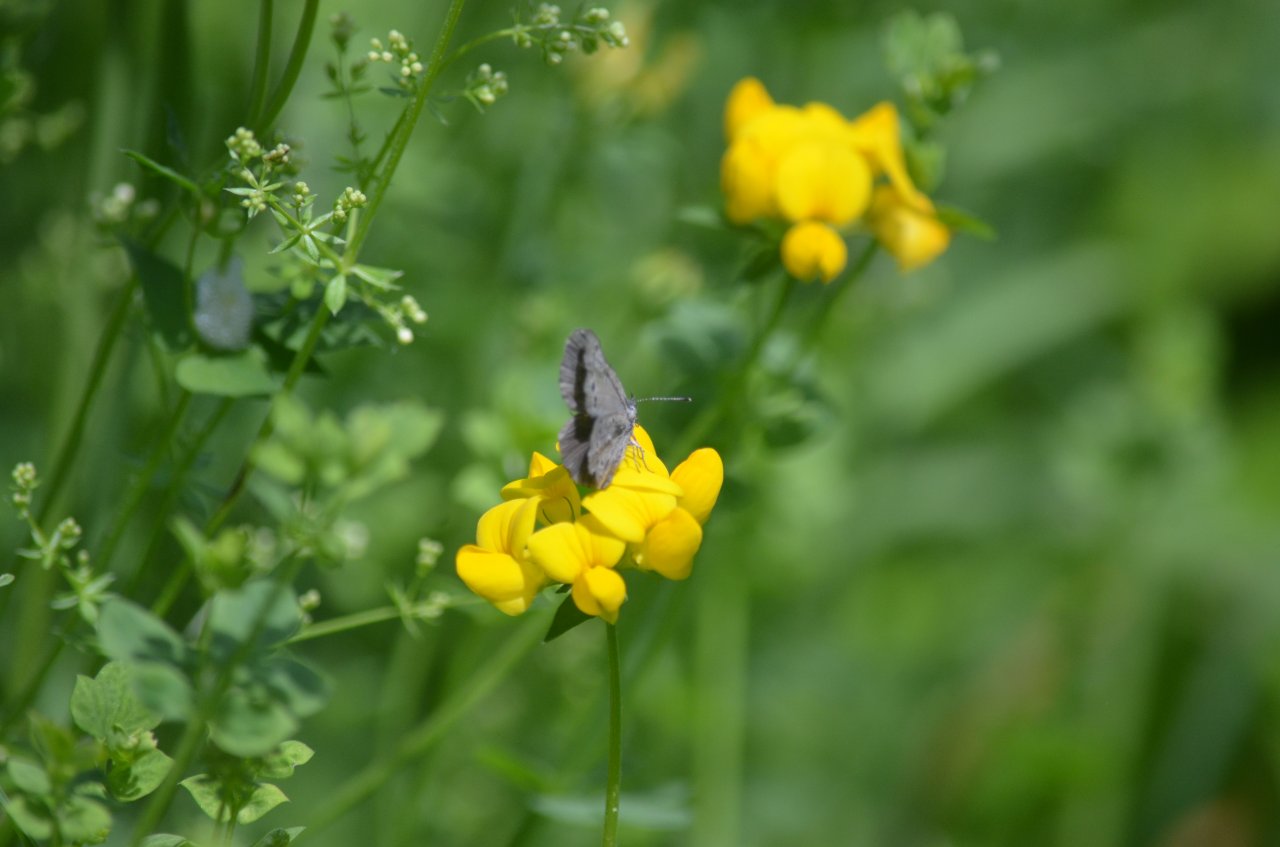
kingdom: Animalia
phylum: Arthropoda
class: Insecta
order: Lepidoptera
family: Lycaenidae
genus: Celastrina
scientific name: Celastrina
